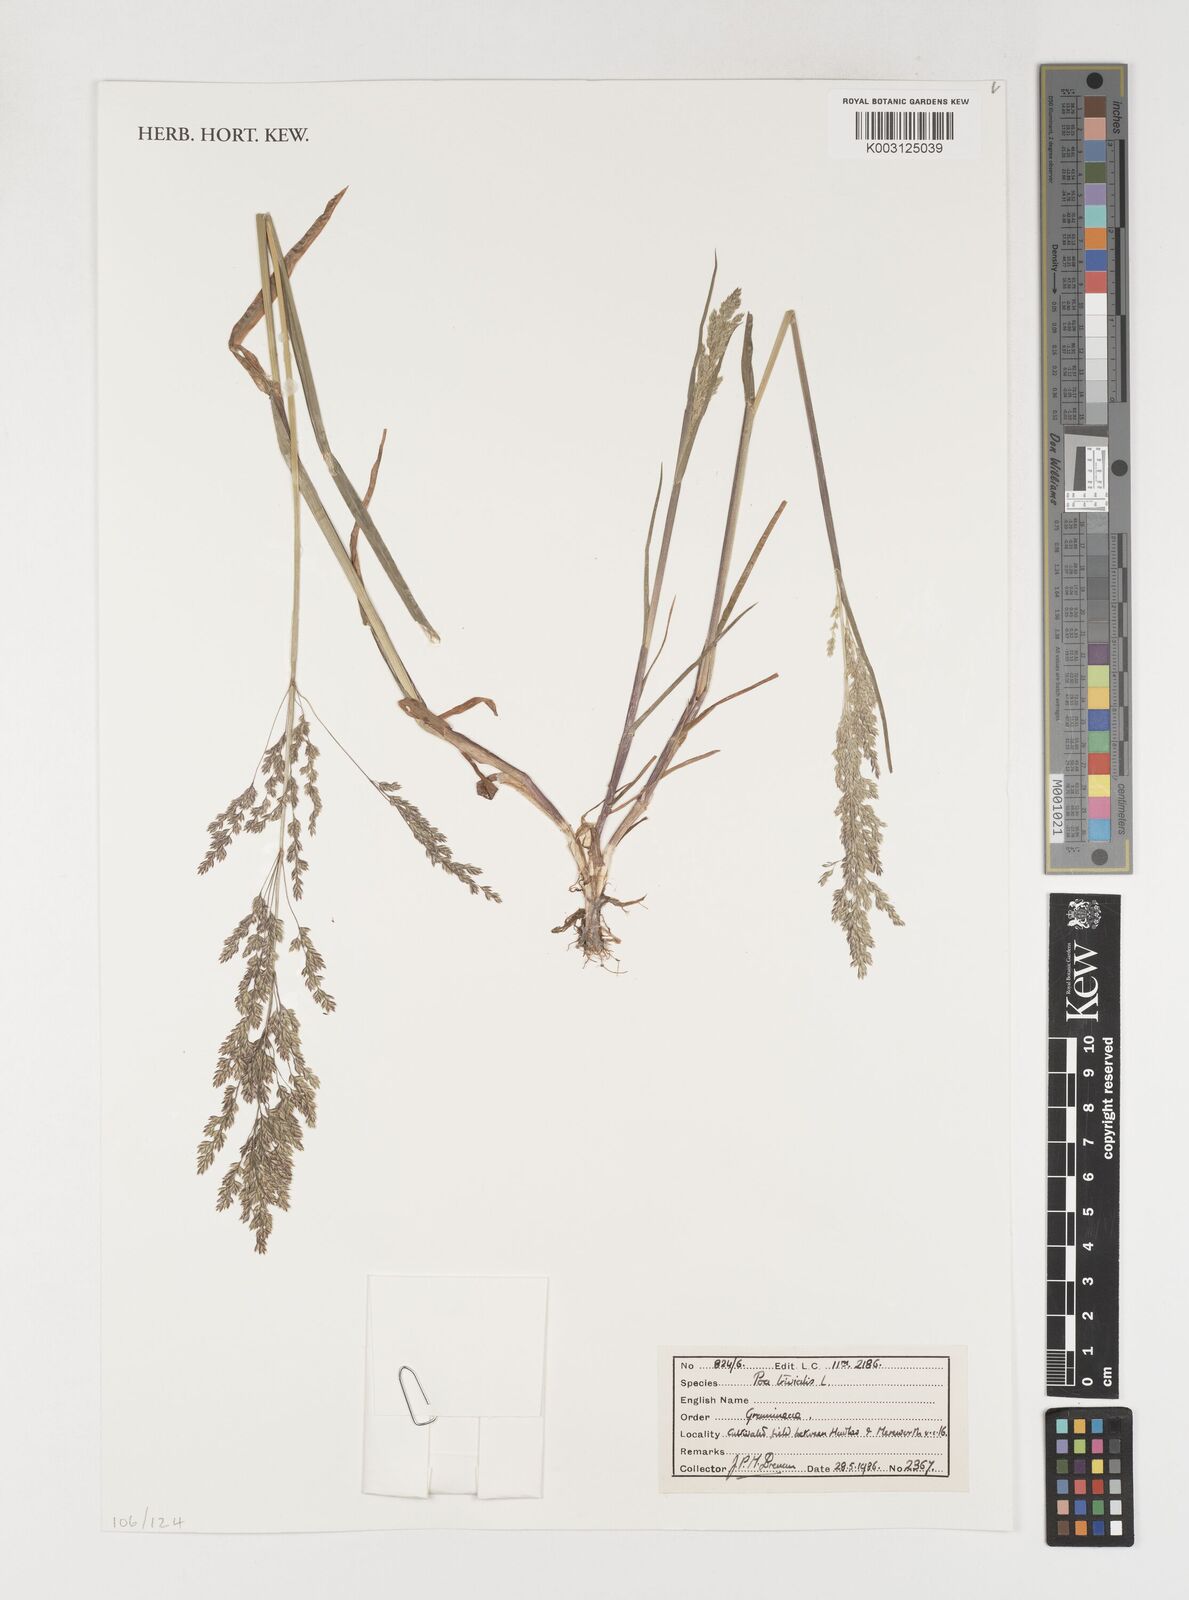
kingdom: Plantae
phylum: Tracheophyta
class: Liliopsida
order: Poales
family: Poaceae
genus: Poa
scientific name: Poa trivialis
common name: Rough bluegrass
